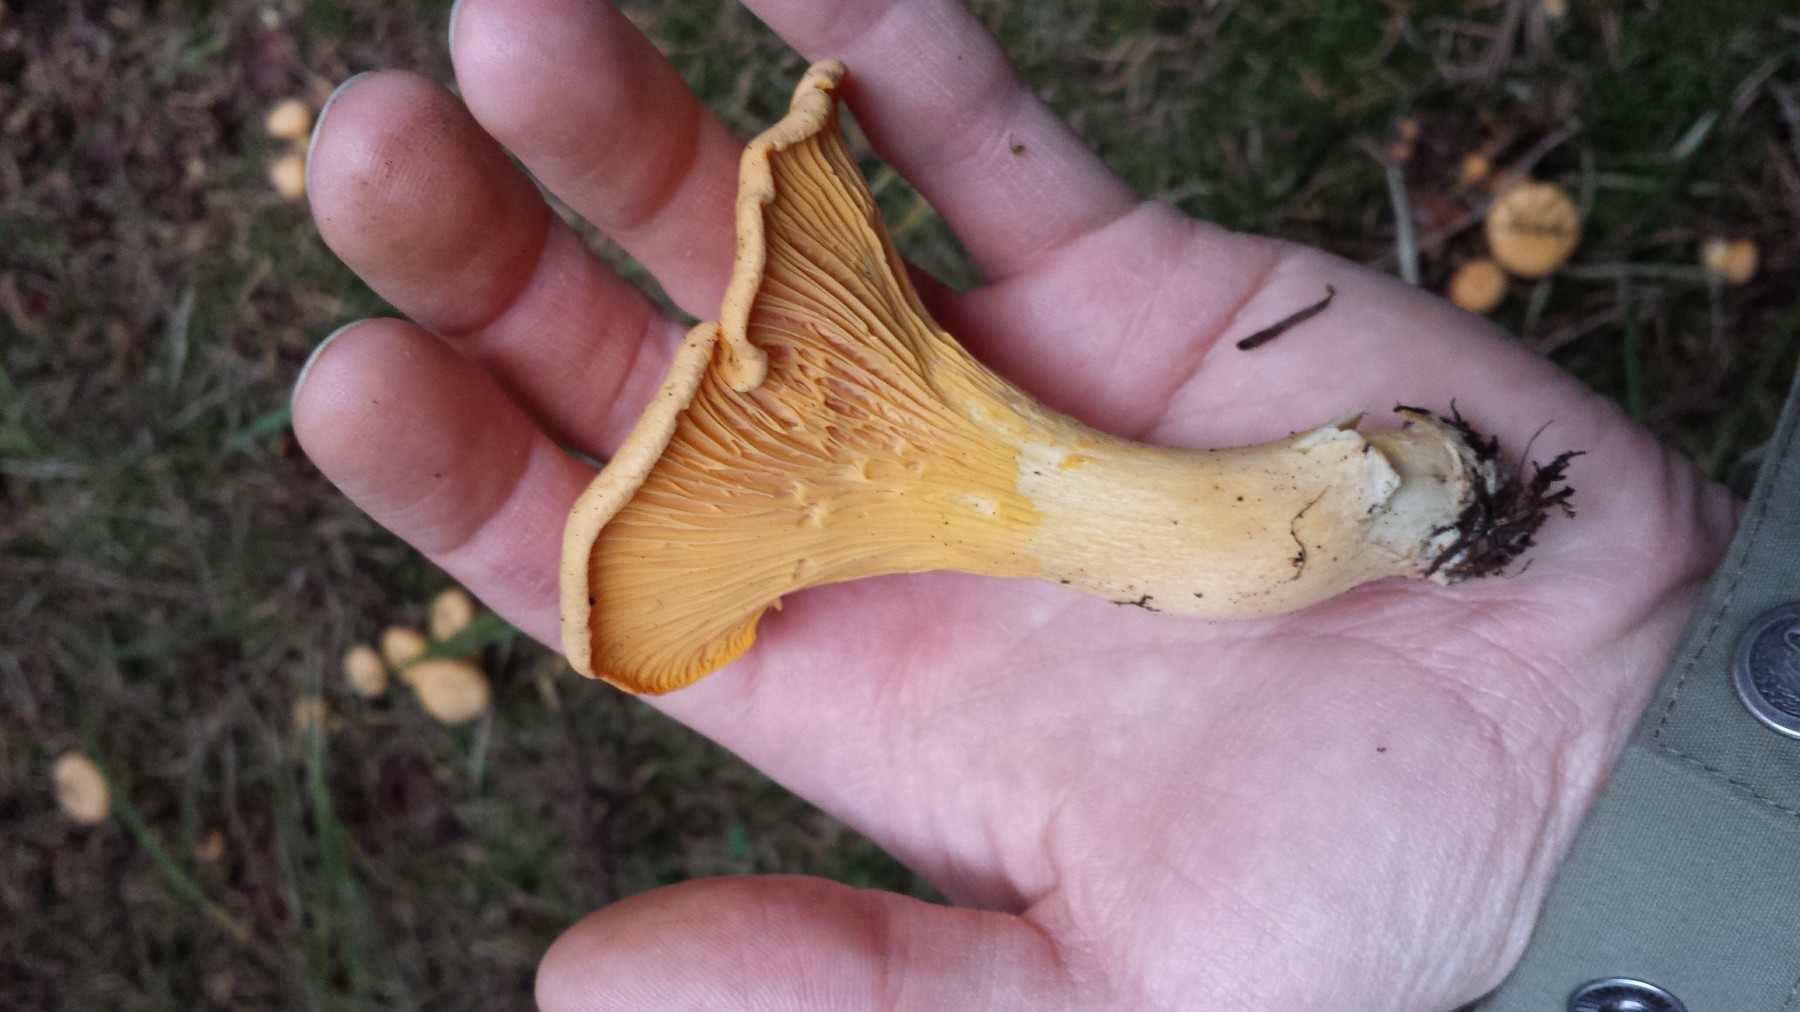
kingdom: Fungi
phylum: Basidiomycota
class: Agaricomycetes
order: Cantharellales
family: Hydnaceae
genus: Cantharellus
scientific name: Cantharellus cibarius
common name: almindelig kantarel
